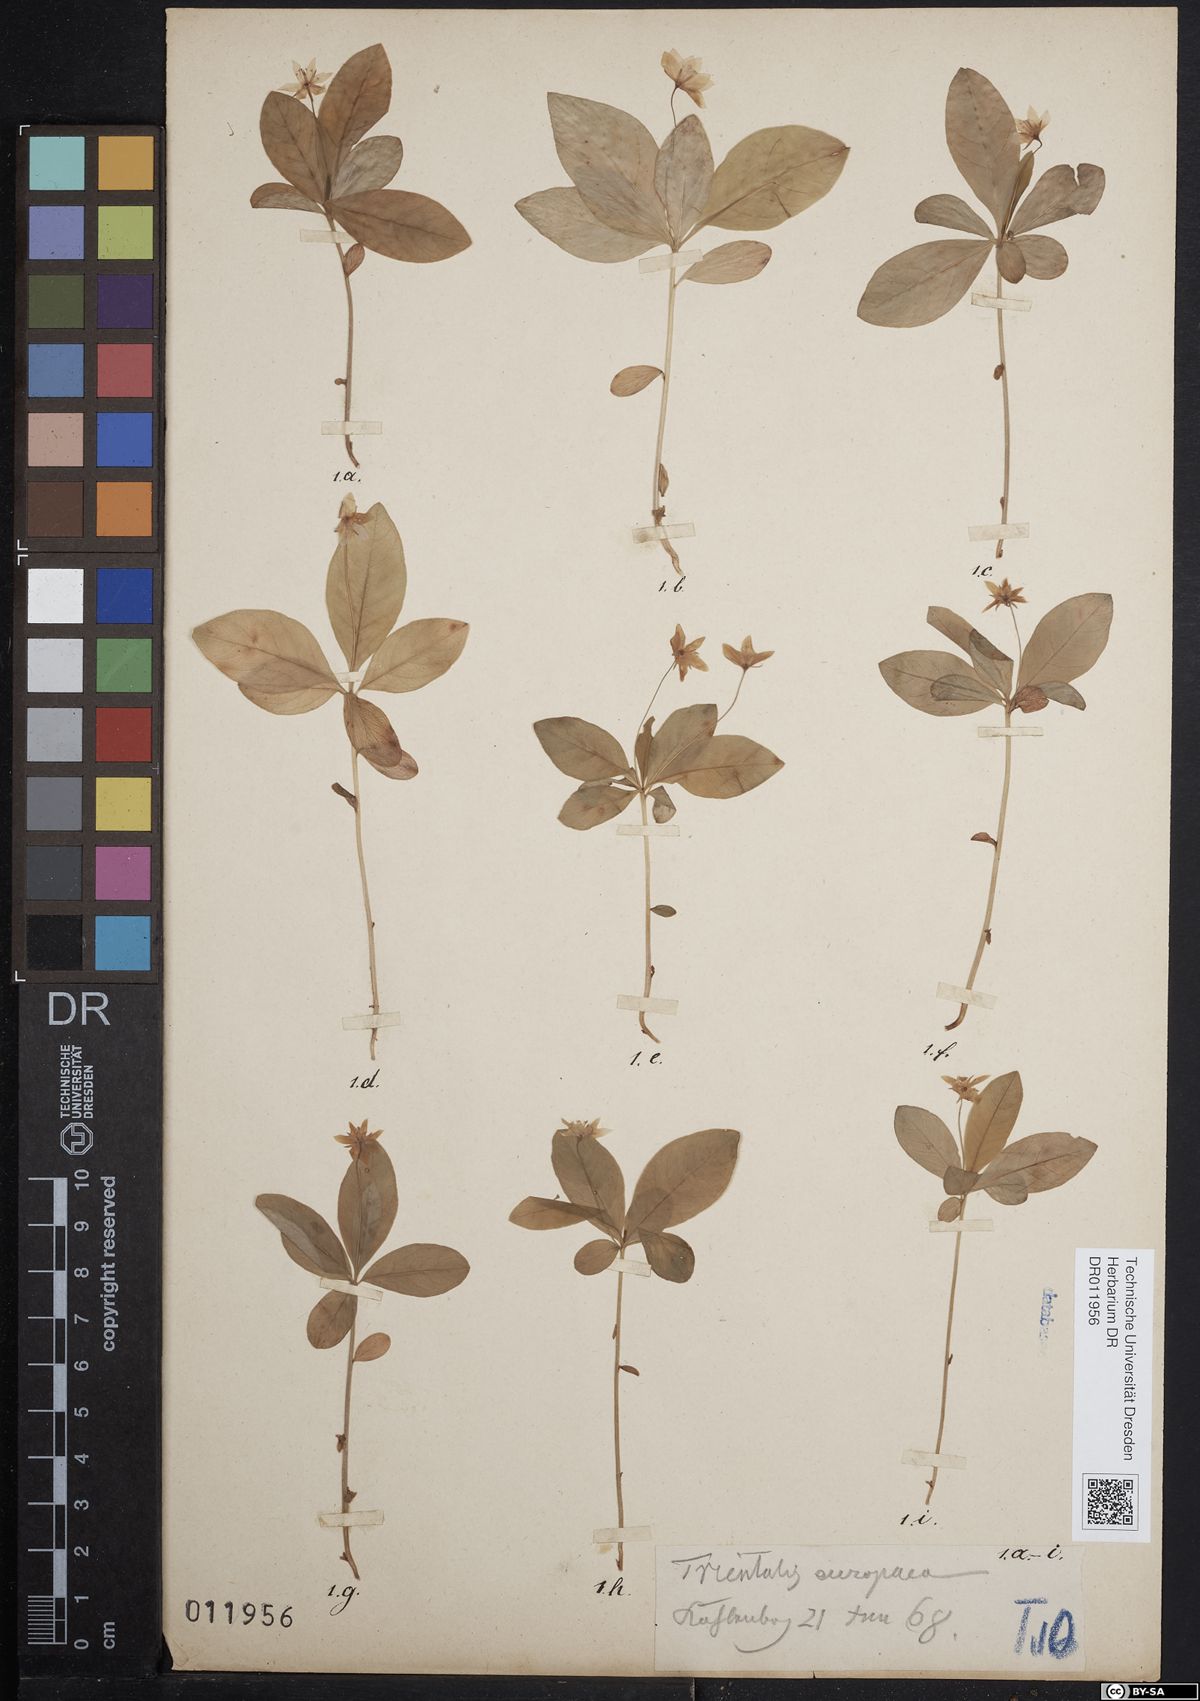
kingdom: Plantae
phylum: Tracheophyta
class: Magnoliopsida
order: Ericales
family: Primulaceae
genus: Lysimachia
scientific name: Lysimachia europaea
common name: Arctic starflower
